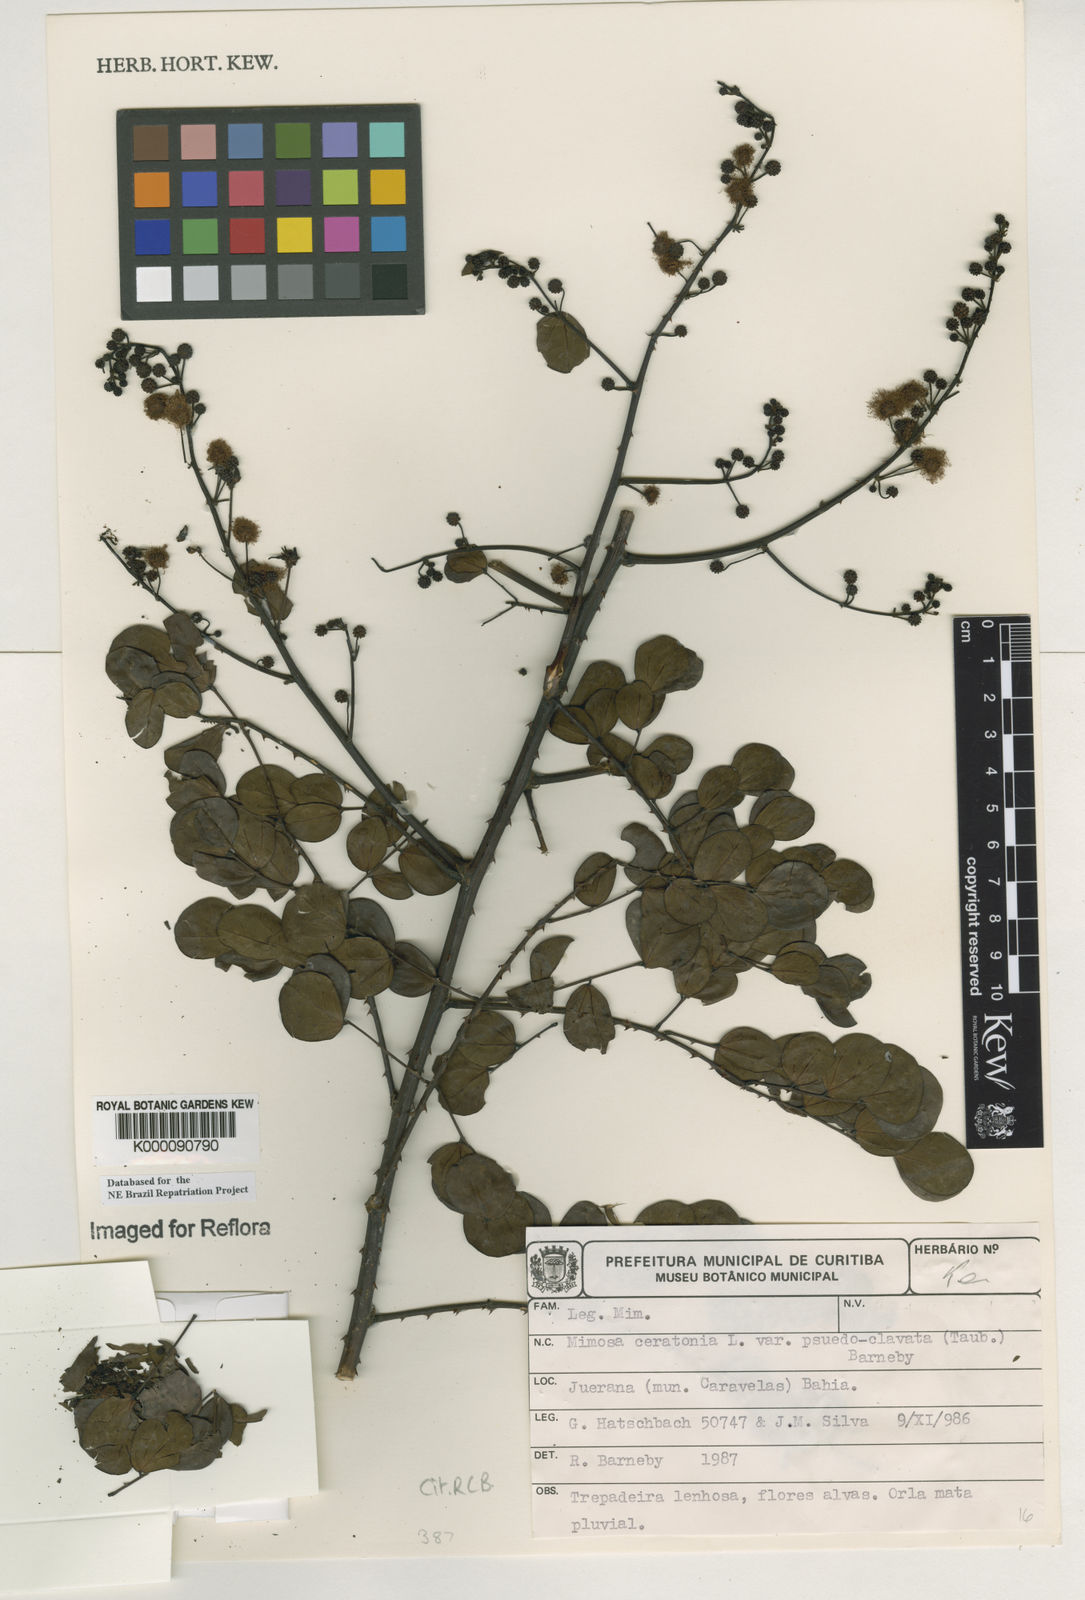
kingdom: Plantae
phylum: Tracheophyta
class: Magnoliopsida
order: Fabales
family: Fabaceae
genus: Mimosa
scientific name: Mimosa ceratonia
